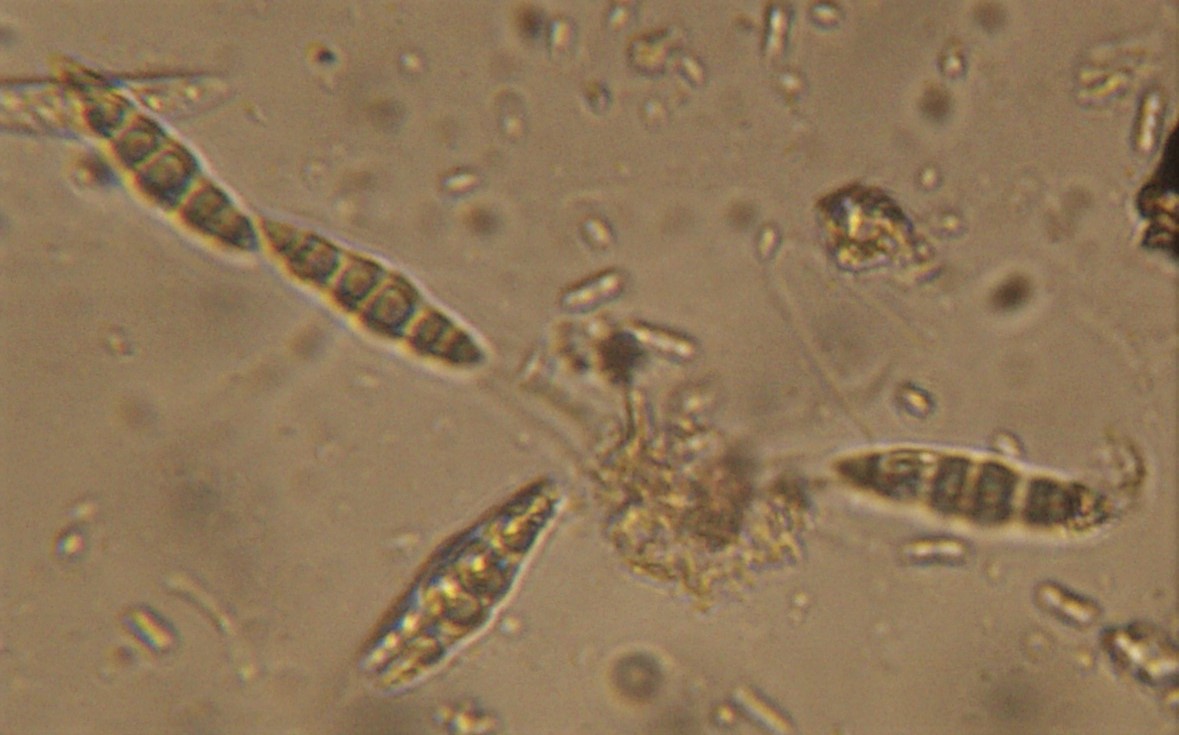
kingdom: Fungi
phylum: Ascomycota
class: Dothideomycetes
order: Pleosporales
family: Leptosphaeriaceae
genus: Leptosphaeria
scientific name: Leptosphaeria
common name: kulkegle
